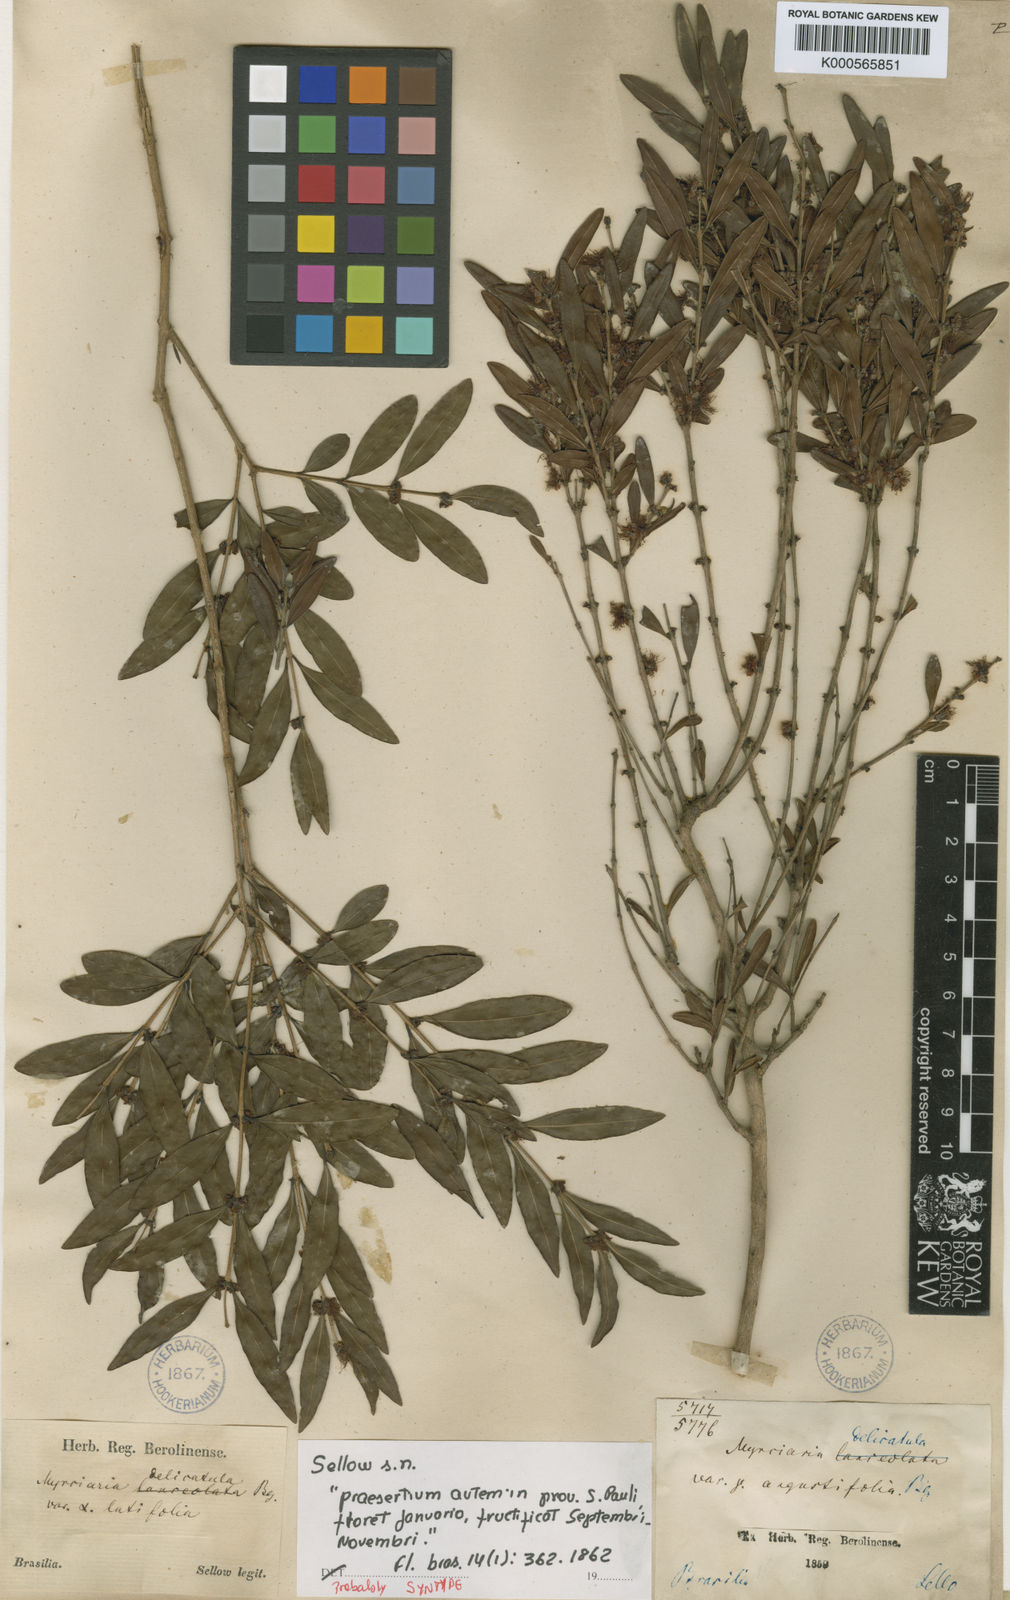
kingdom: Plantae
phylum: Tracheophyta
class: Magnoliopsida
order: Myrtales
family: Myrtaceae
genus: Myrciaria
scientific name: Myrciaria delicatula
